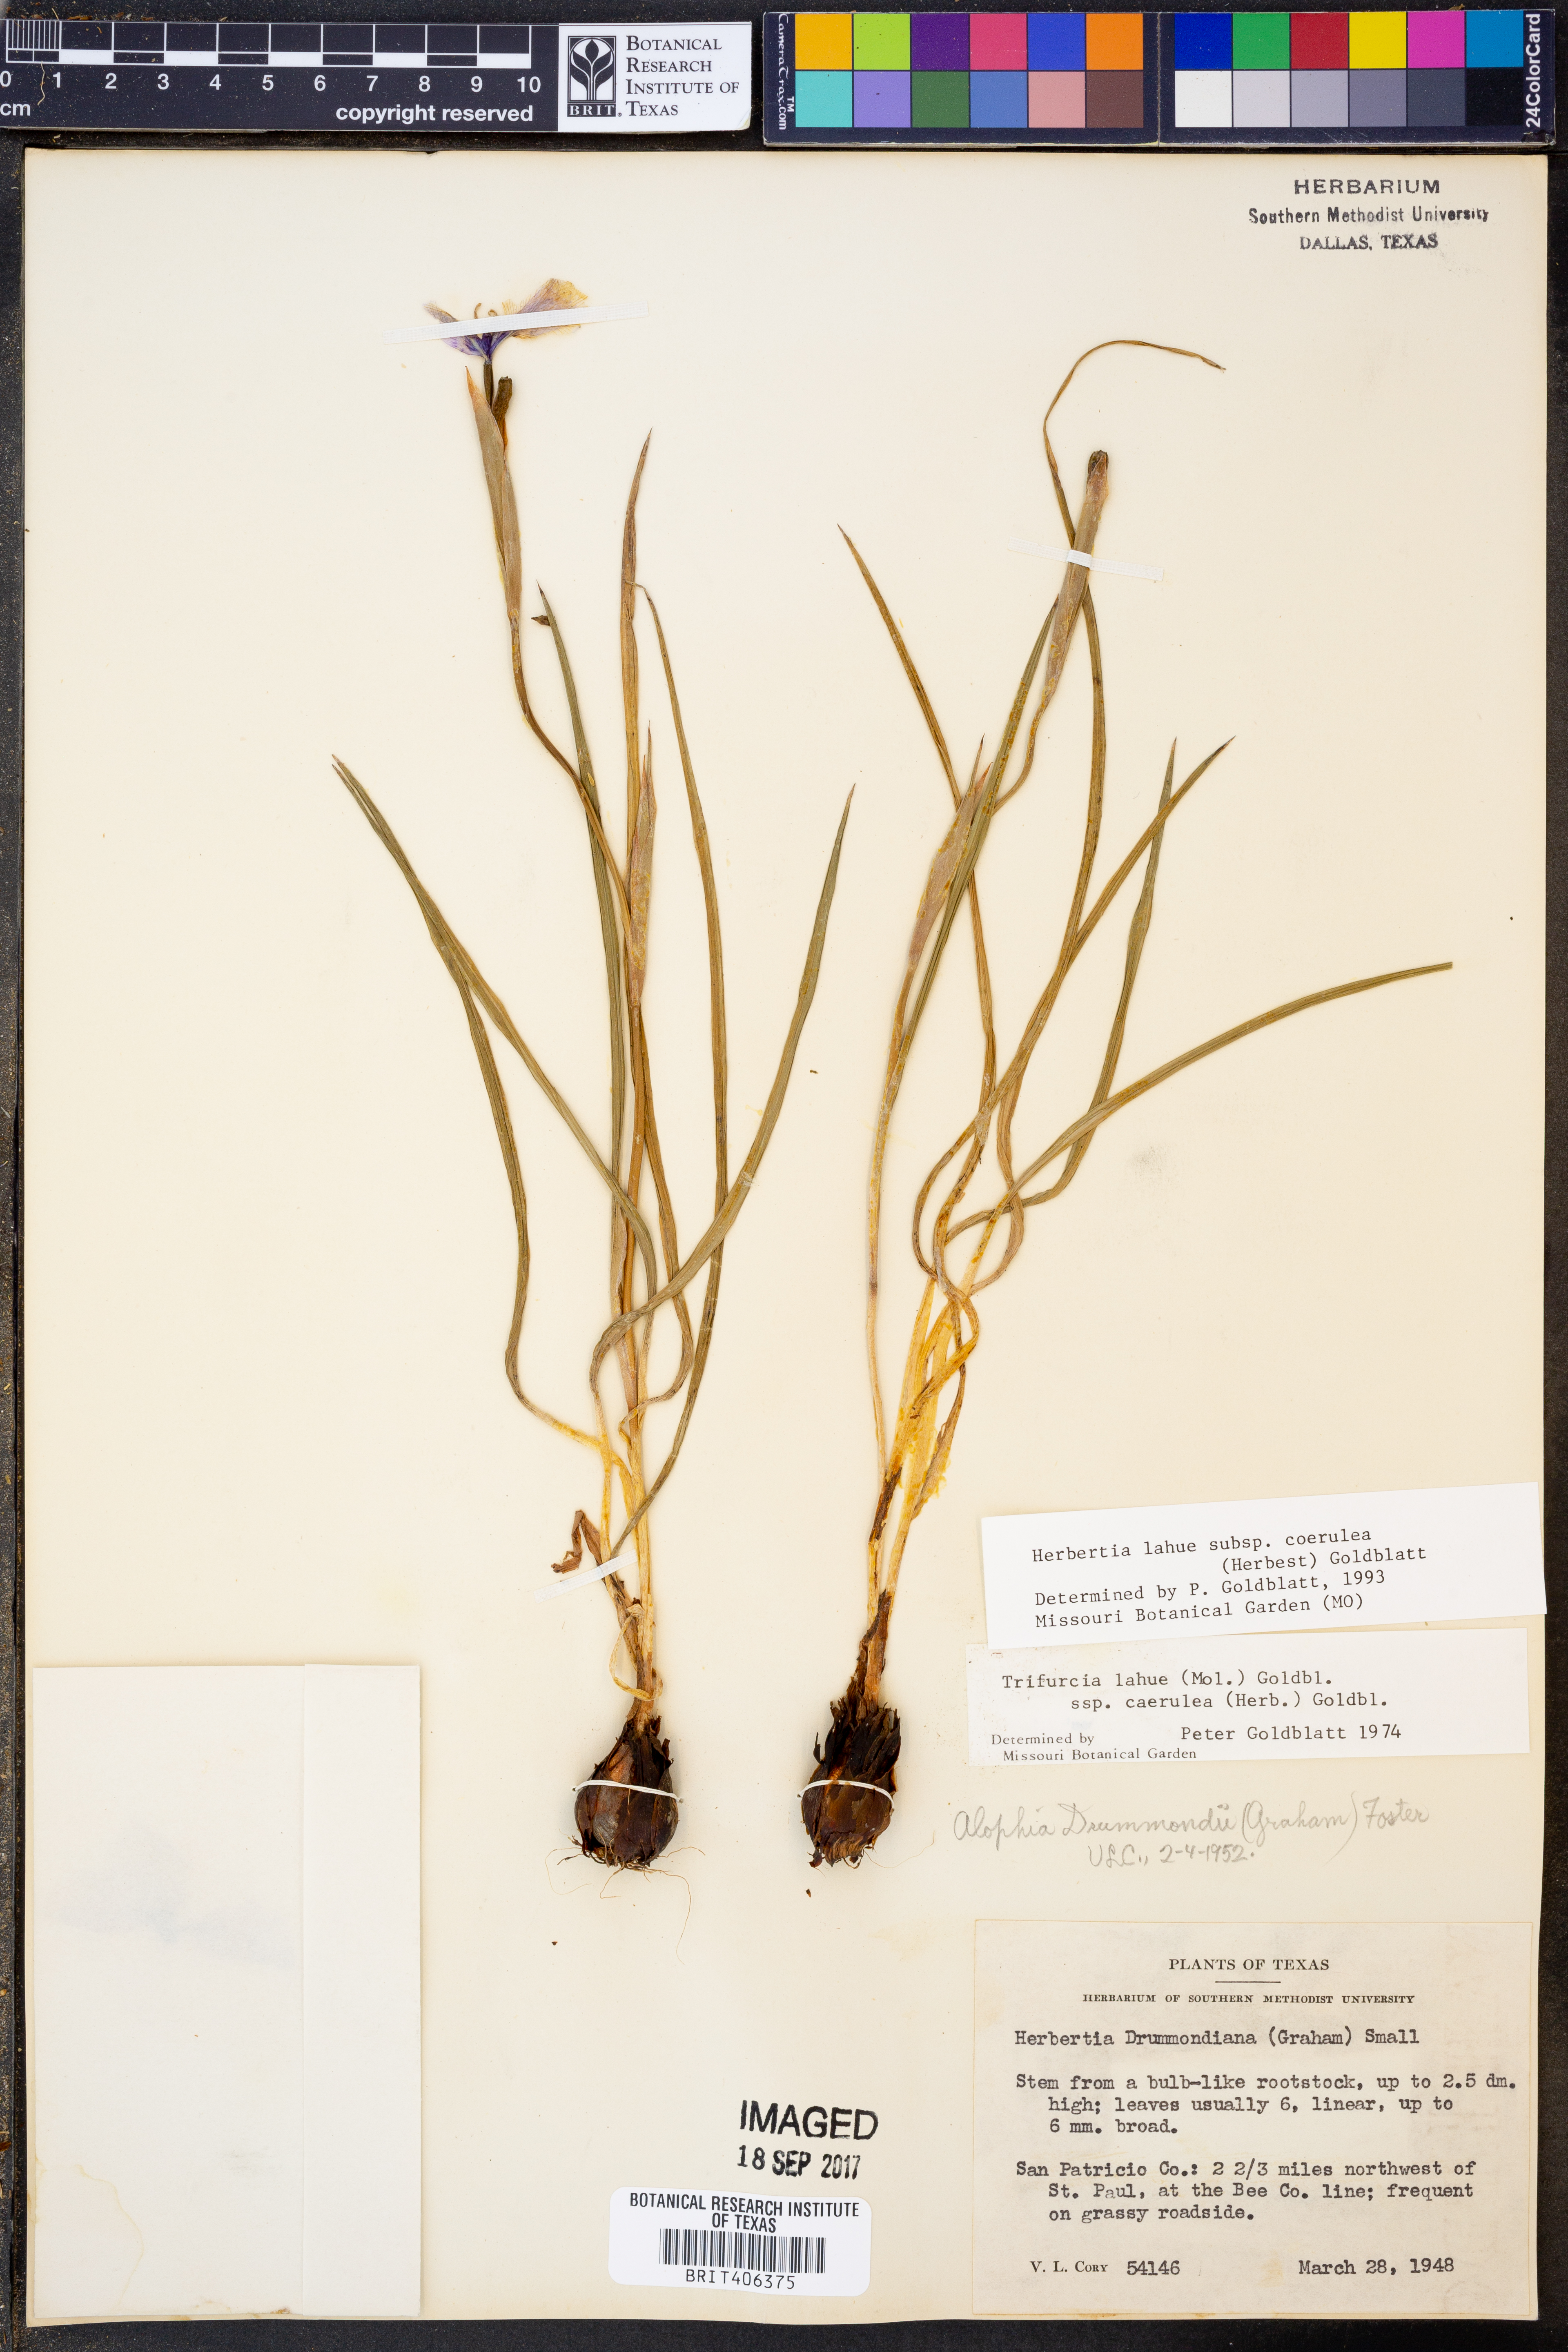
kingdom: Plantae
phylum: Tracheophyta
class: Liliopsida
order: Asparagales
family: Iridaceae
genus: Herbertia
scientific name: Herbertia lahue
